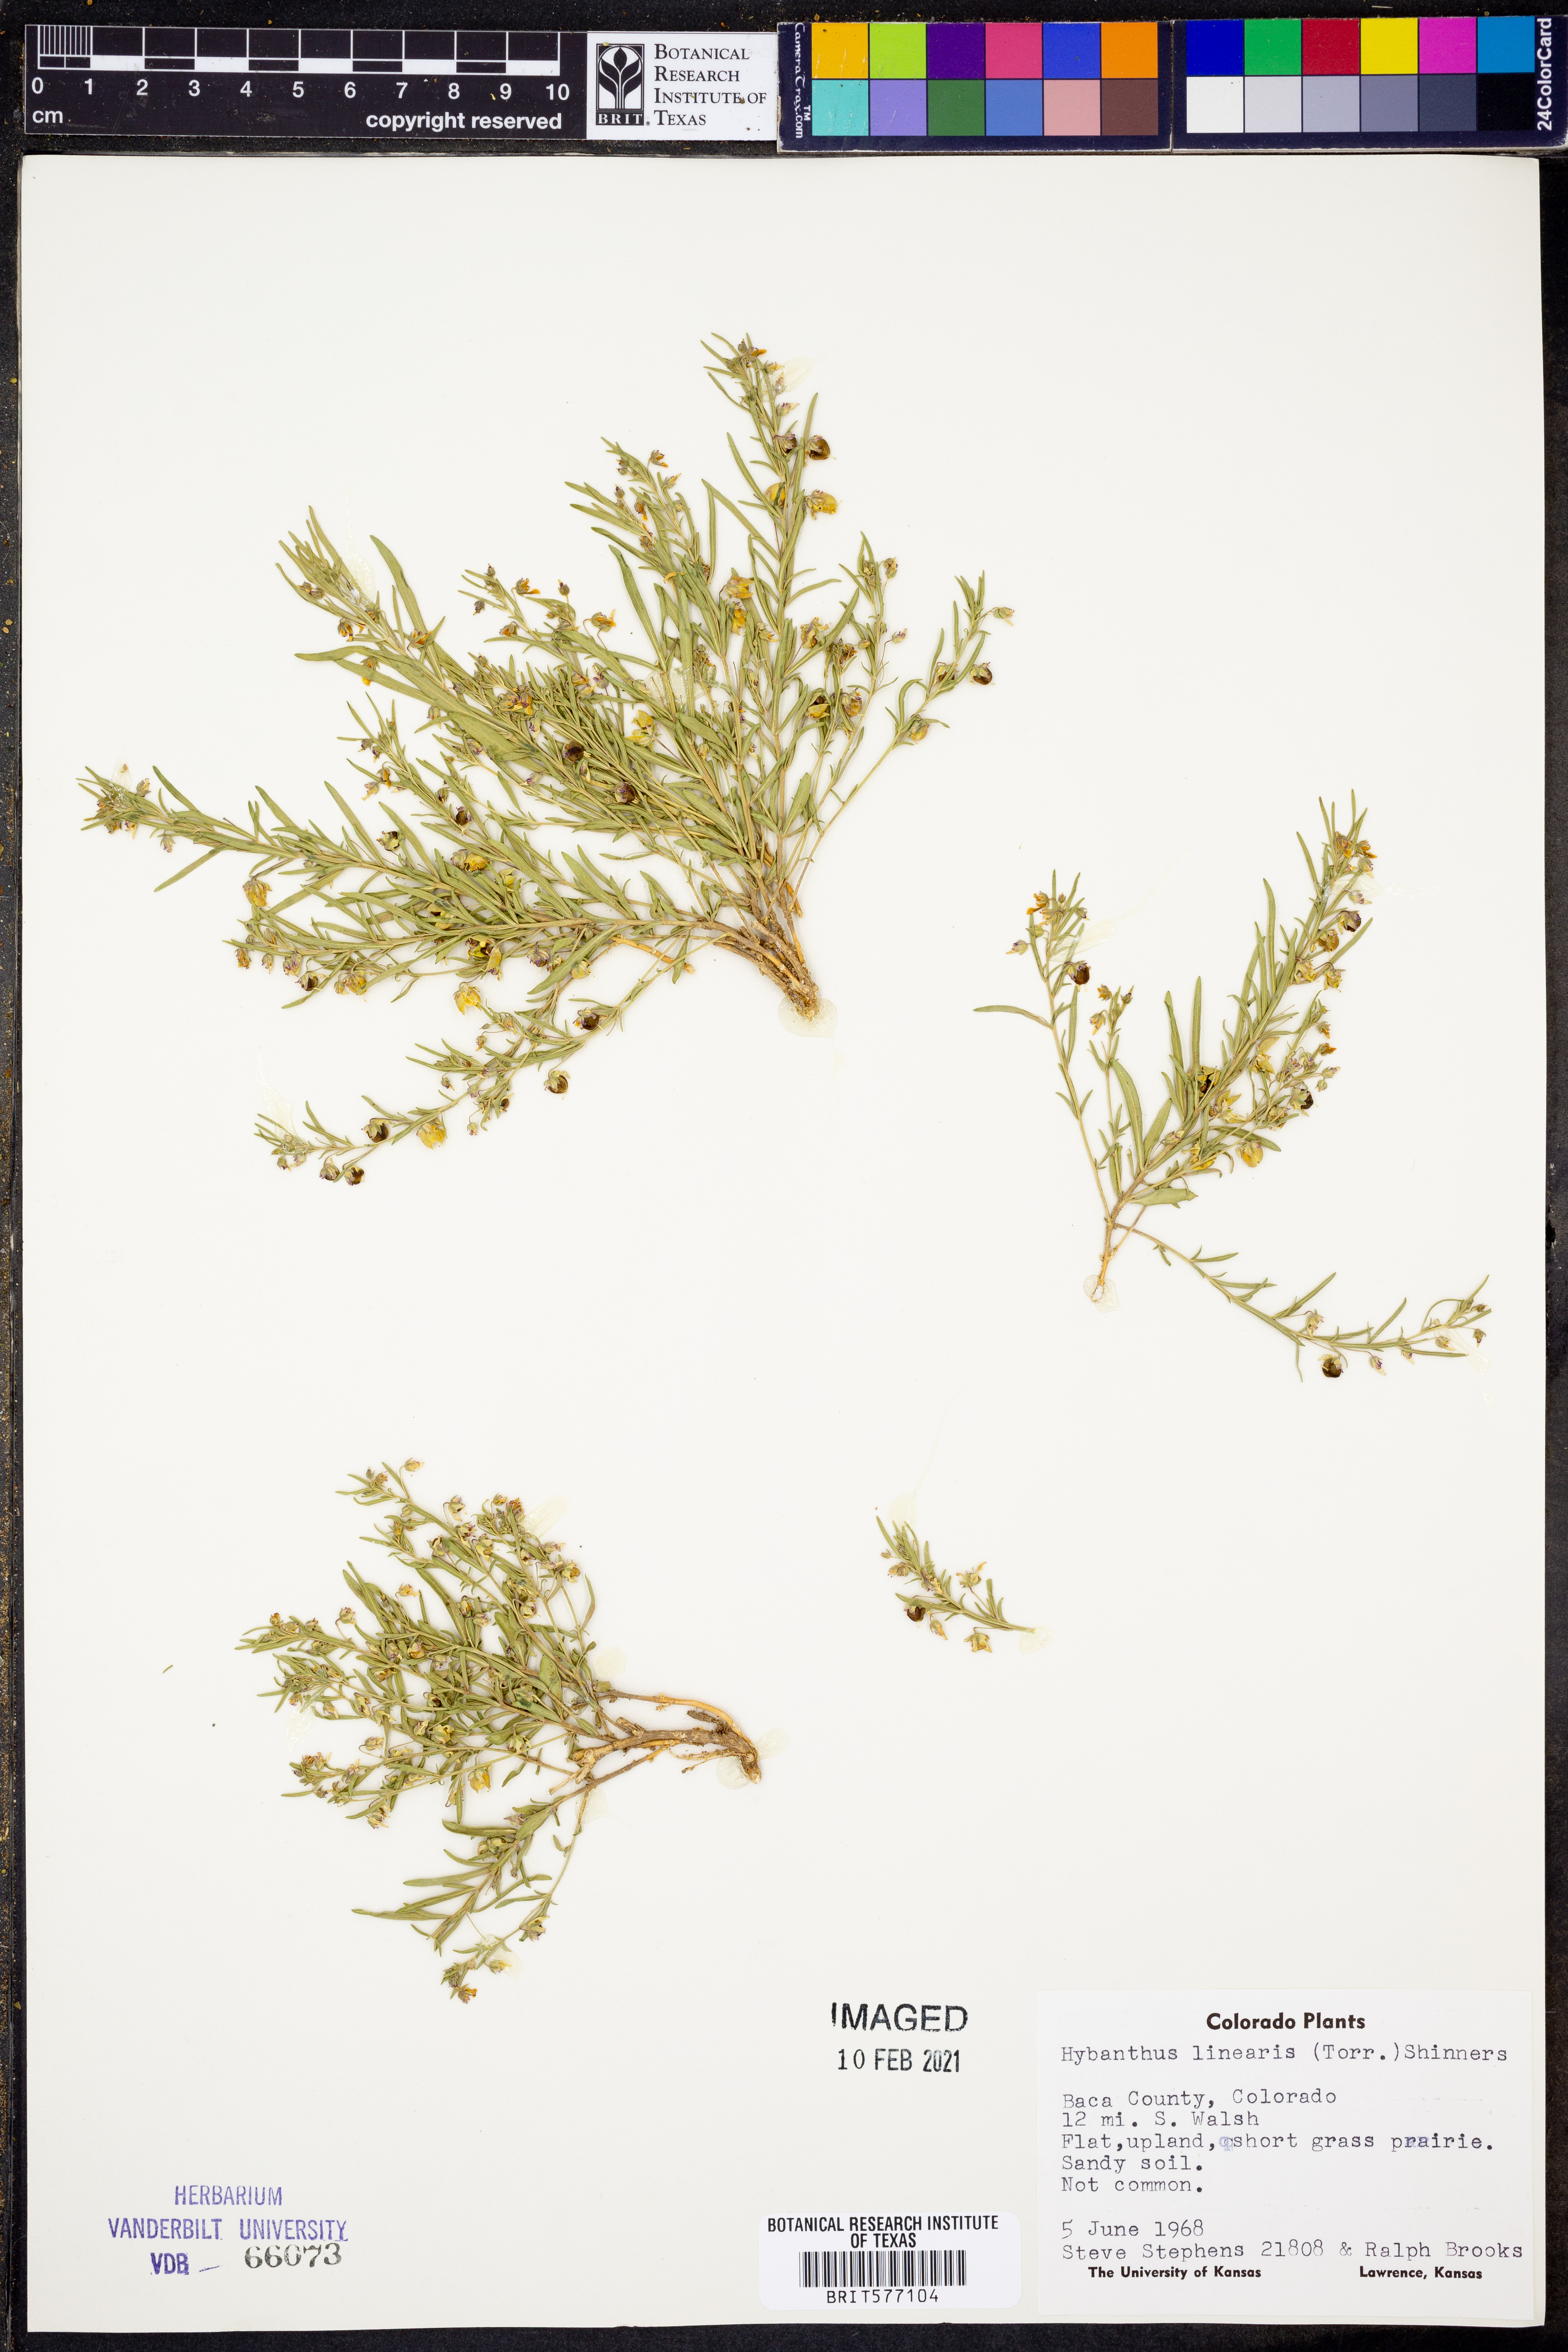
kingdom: Plantae
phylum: Tracheophyta
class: Magnoliopsida
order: Malpighiales
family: Violaceae
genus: Pombalia
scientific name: Pombalia verticillata
